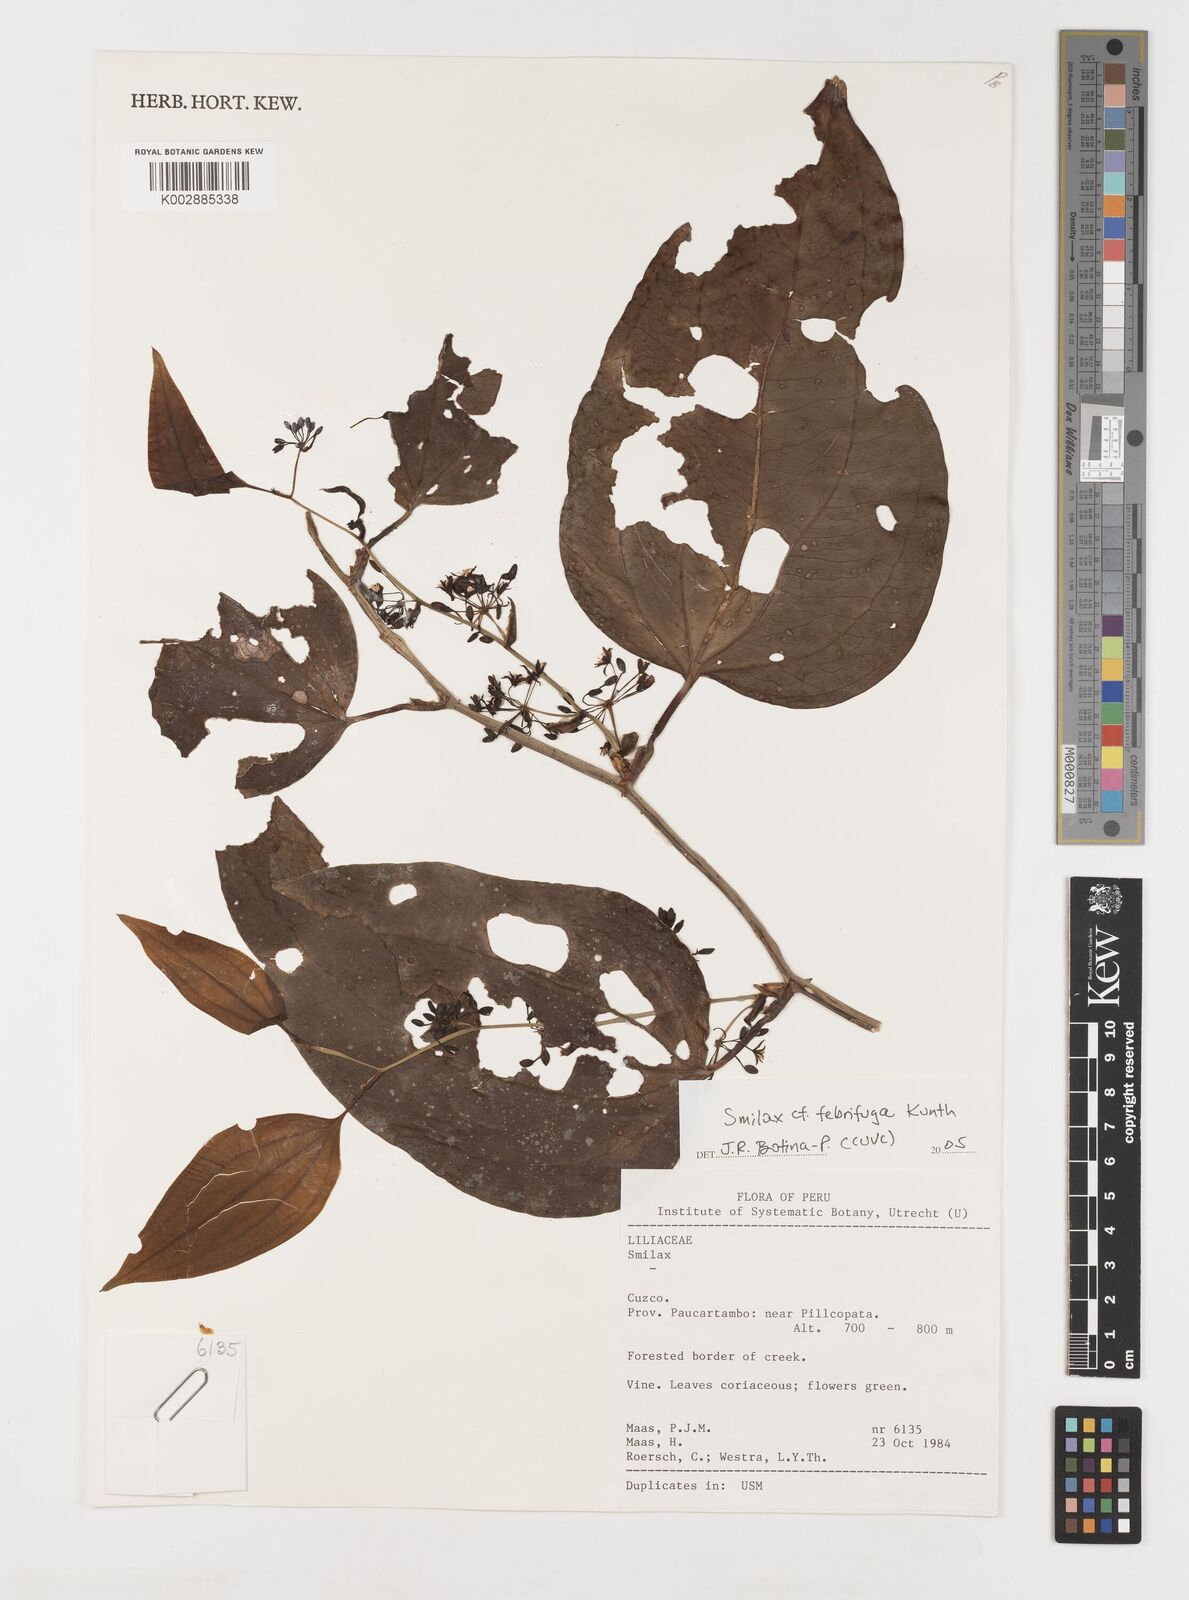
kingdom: Plantae
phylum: Tracheophyta
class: Liliopsida
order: Liliales
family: Smilacaceae
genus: Smilax
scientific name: Smilax purhampuy
